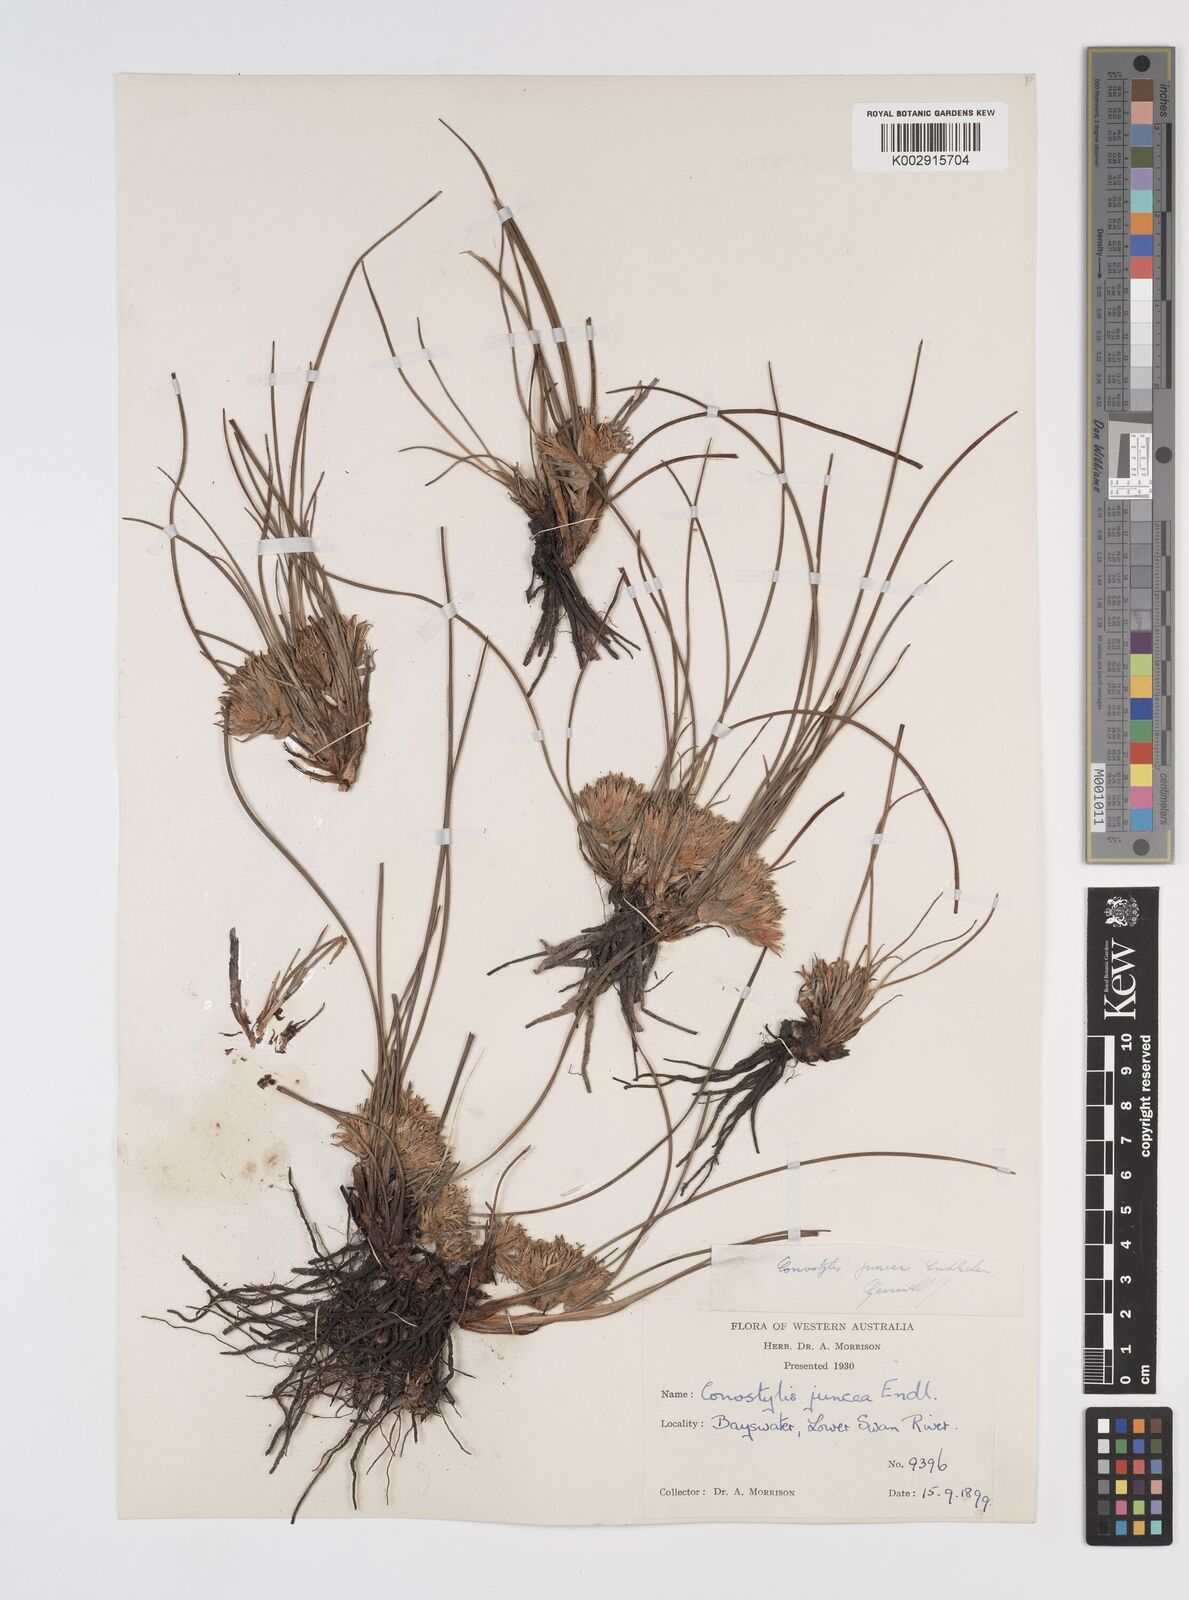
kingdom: Plantae
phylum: Tracheophyta
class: Liliopsida
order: Commelinales
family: Haemodoraceae
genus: Conostylis
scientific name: Conostylis juncea
